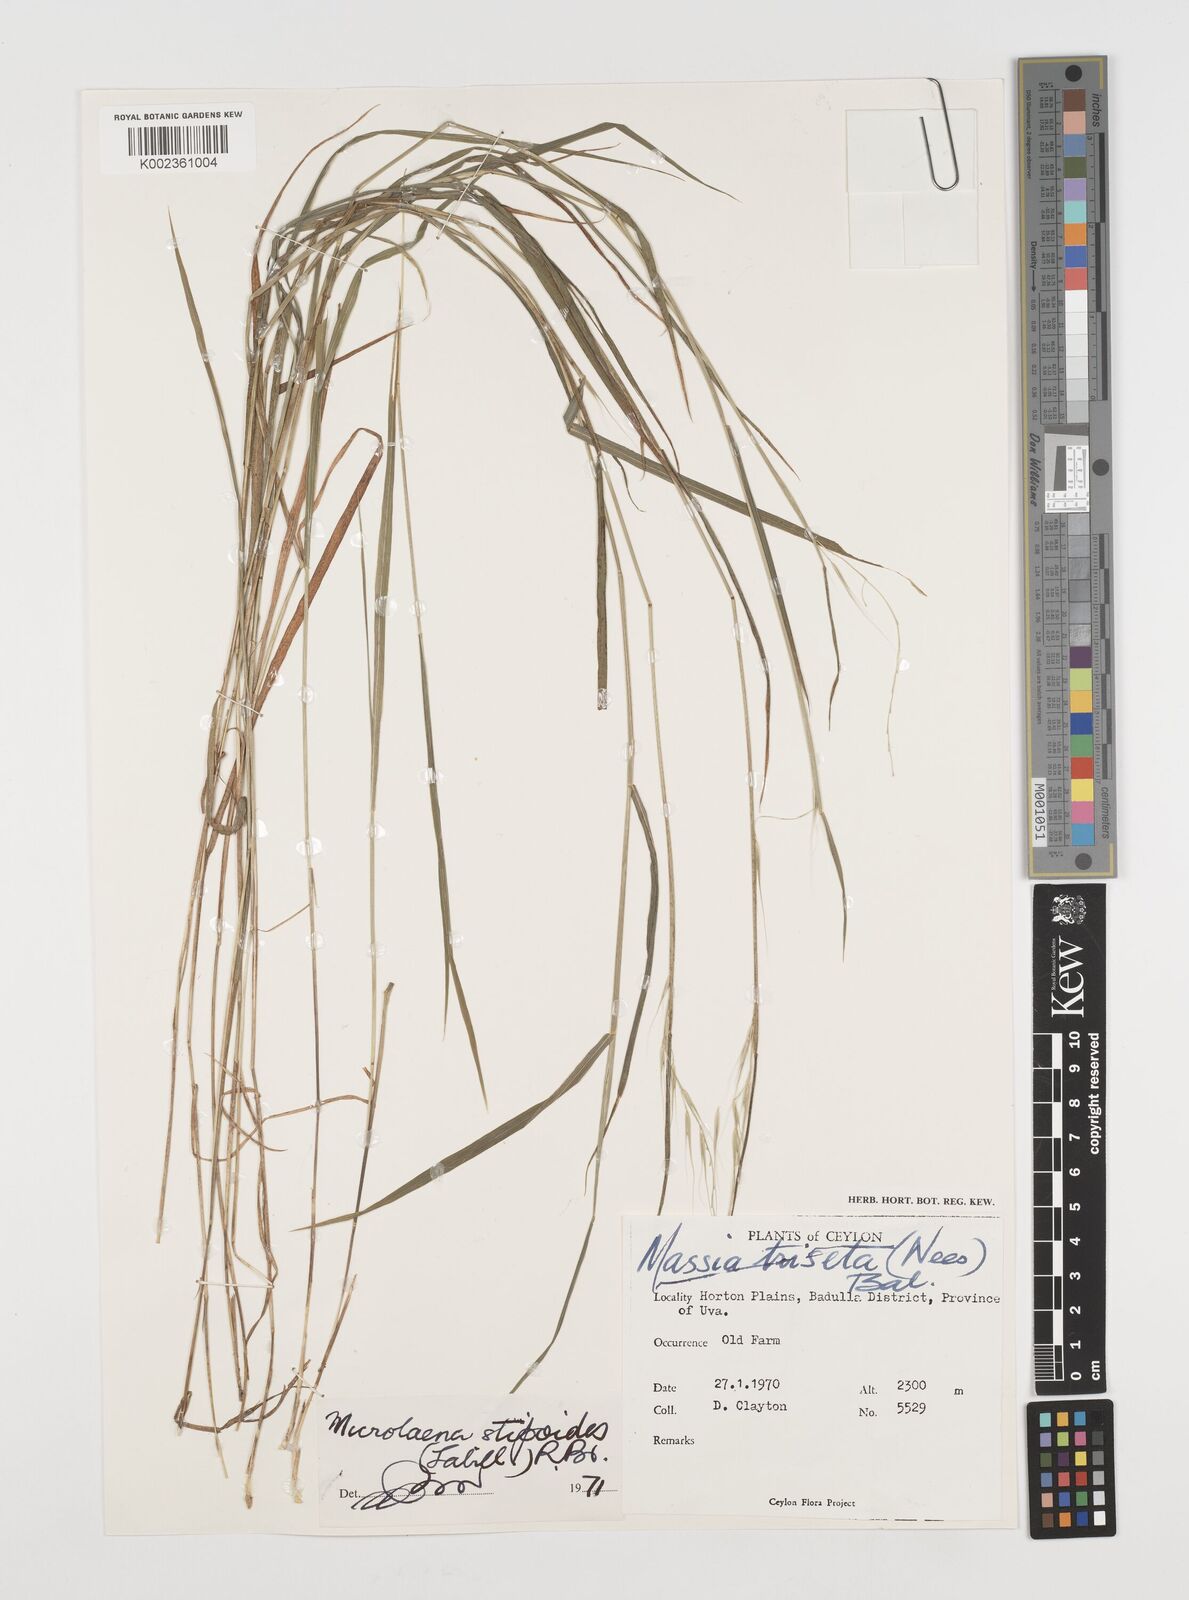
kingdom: Plantae
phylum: Tracheophyta
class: Liliopsida
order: Poales
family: Poaceae
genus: Microlaena
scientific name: Microlaena stipoides
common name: Meadow ricegrass
